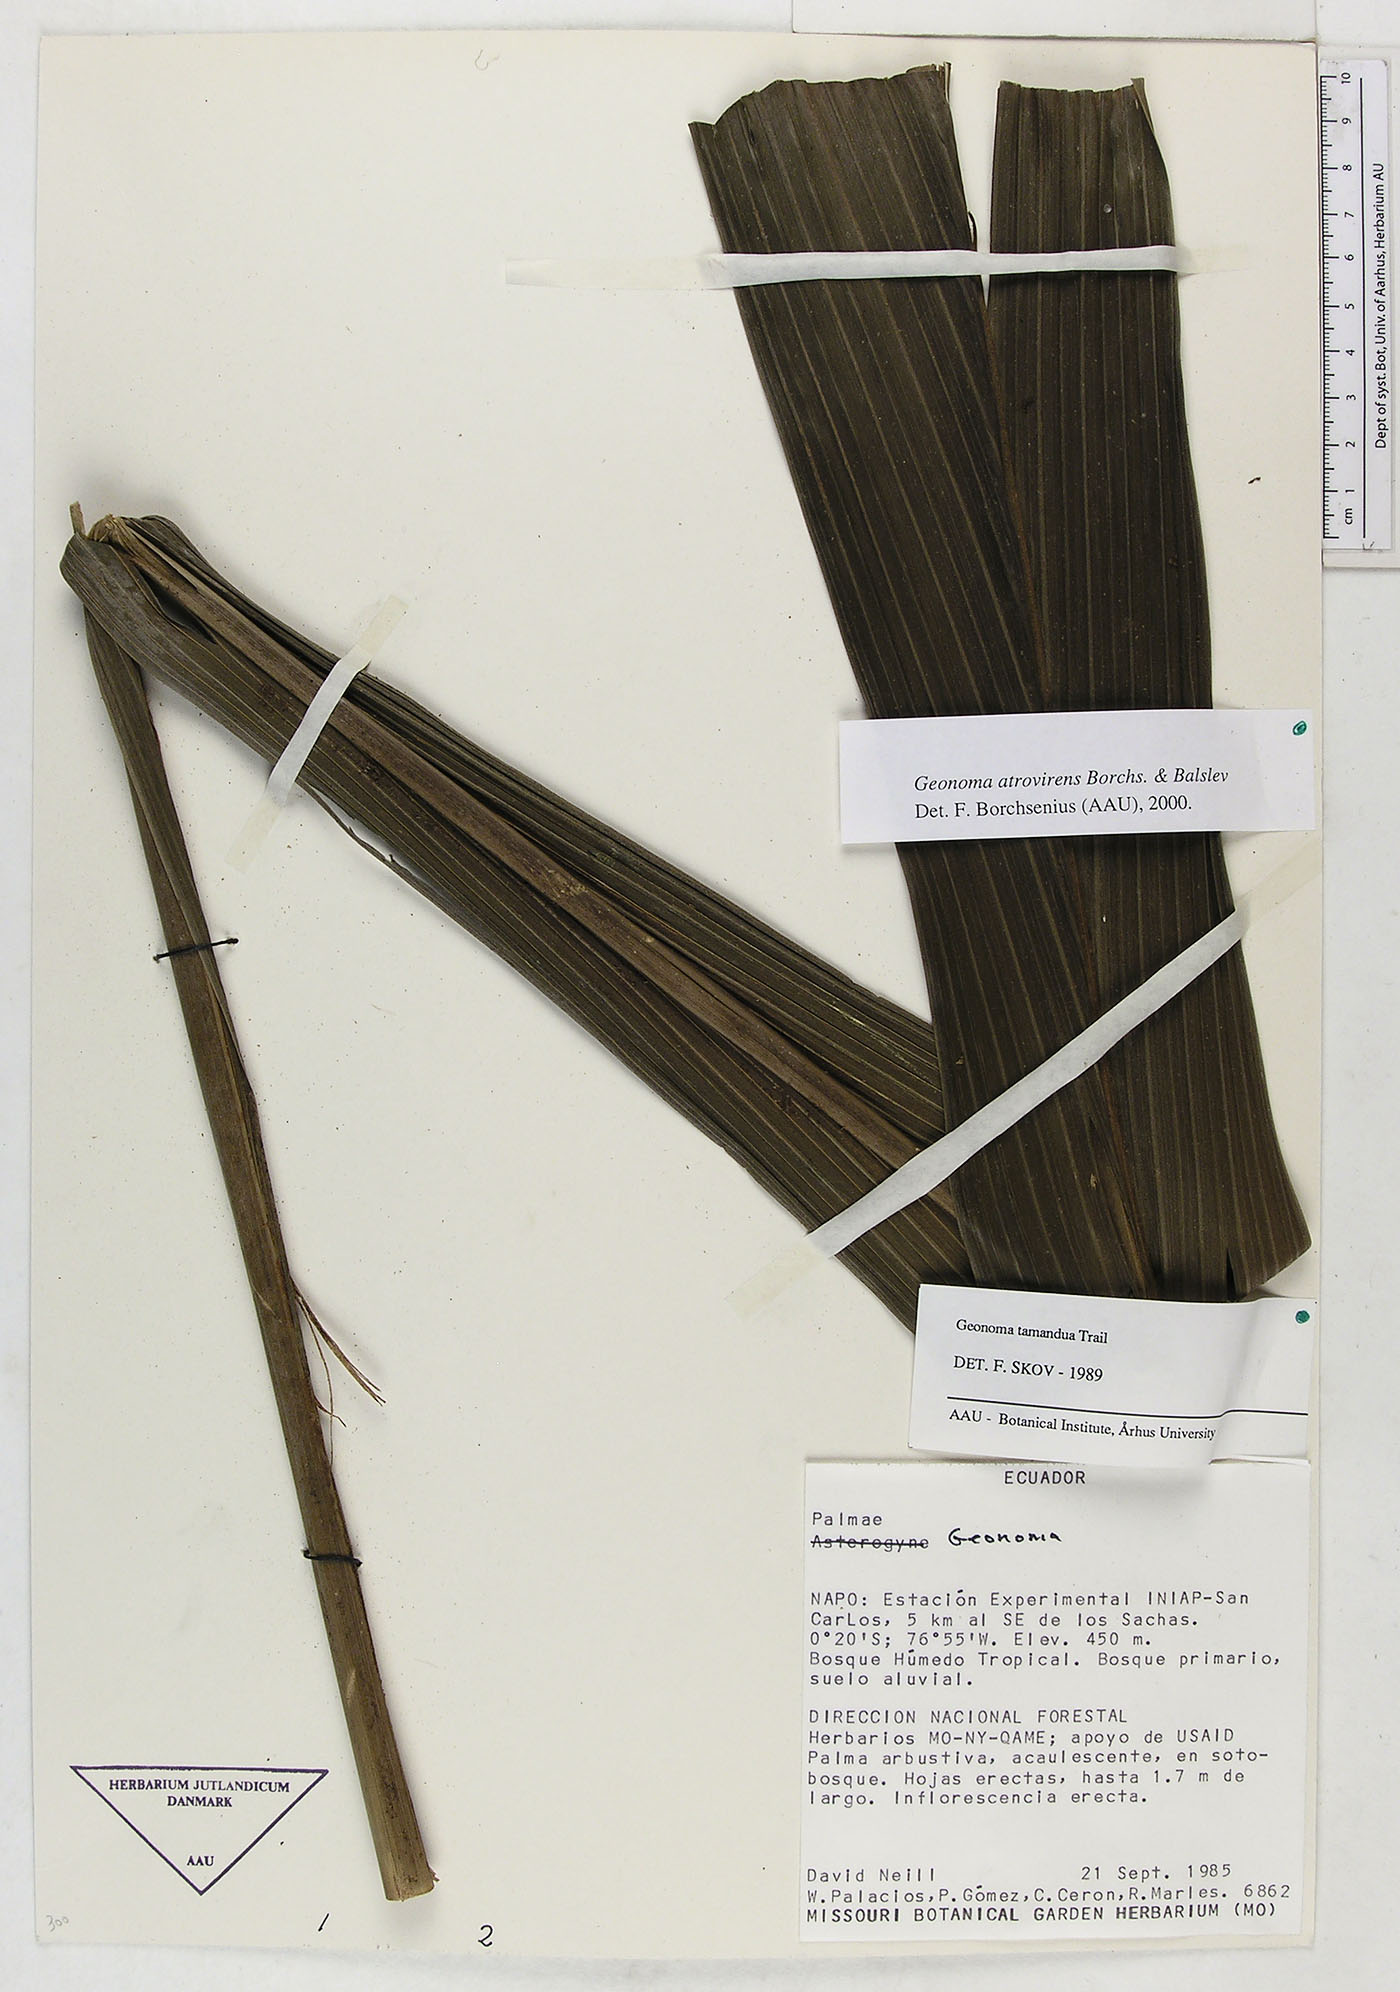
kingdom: Plantae
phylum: Tracheophyta
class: Liliopsida
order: Arecales
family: Arecaceae
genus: Geonoma
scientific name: Geonoma macrostachys
